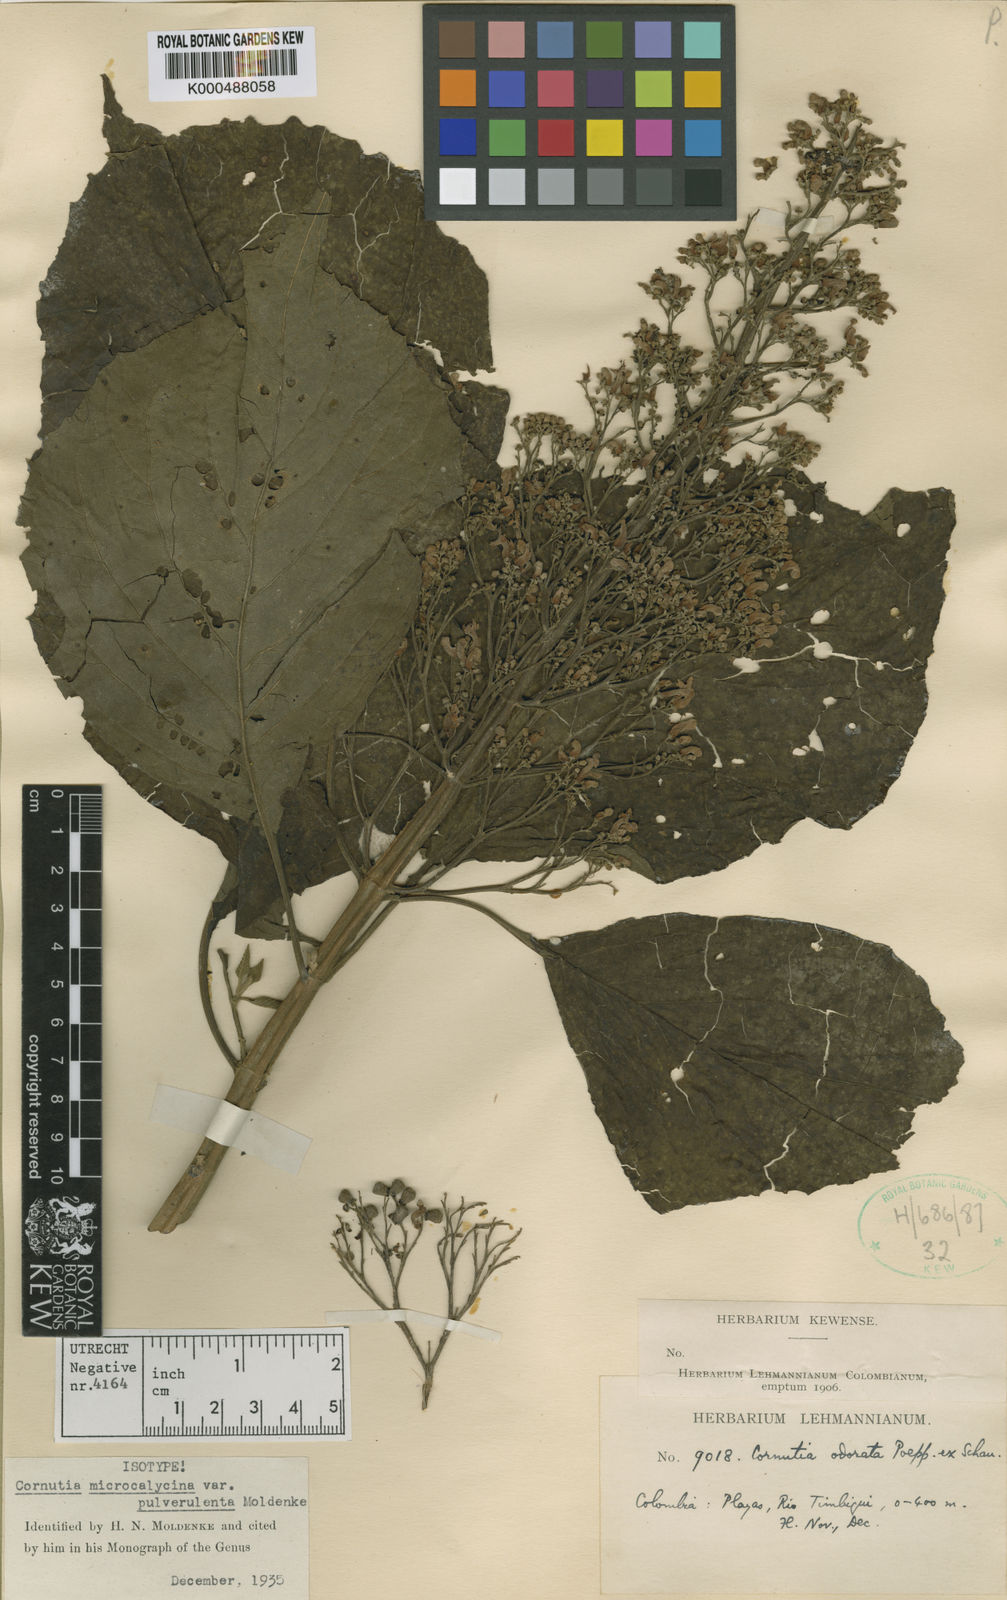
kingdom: Plantae
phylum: Tracheophyta
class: Magnoliopsida
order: Lamiales
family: Lamiaceae
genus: Cornutia
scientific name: Cornutia pyramidata
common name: Azulejo
